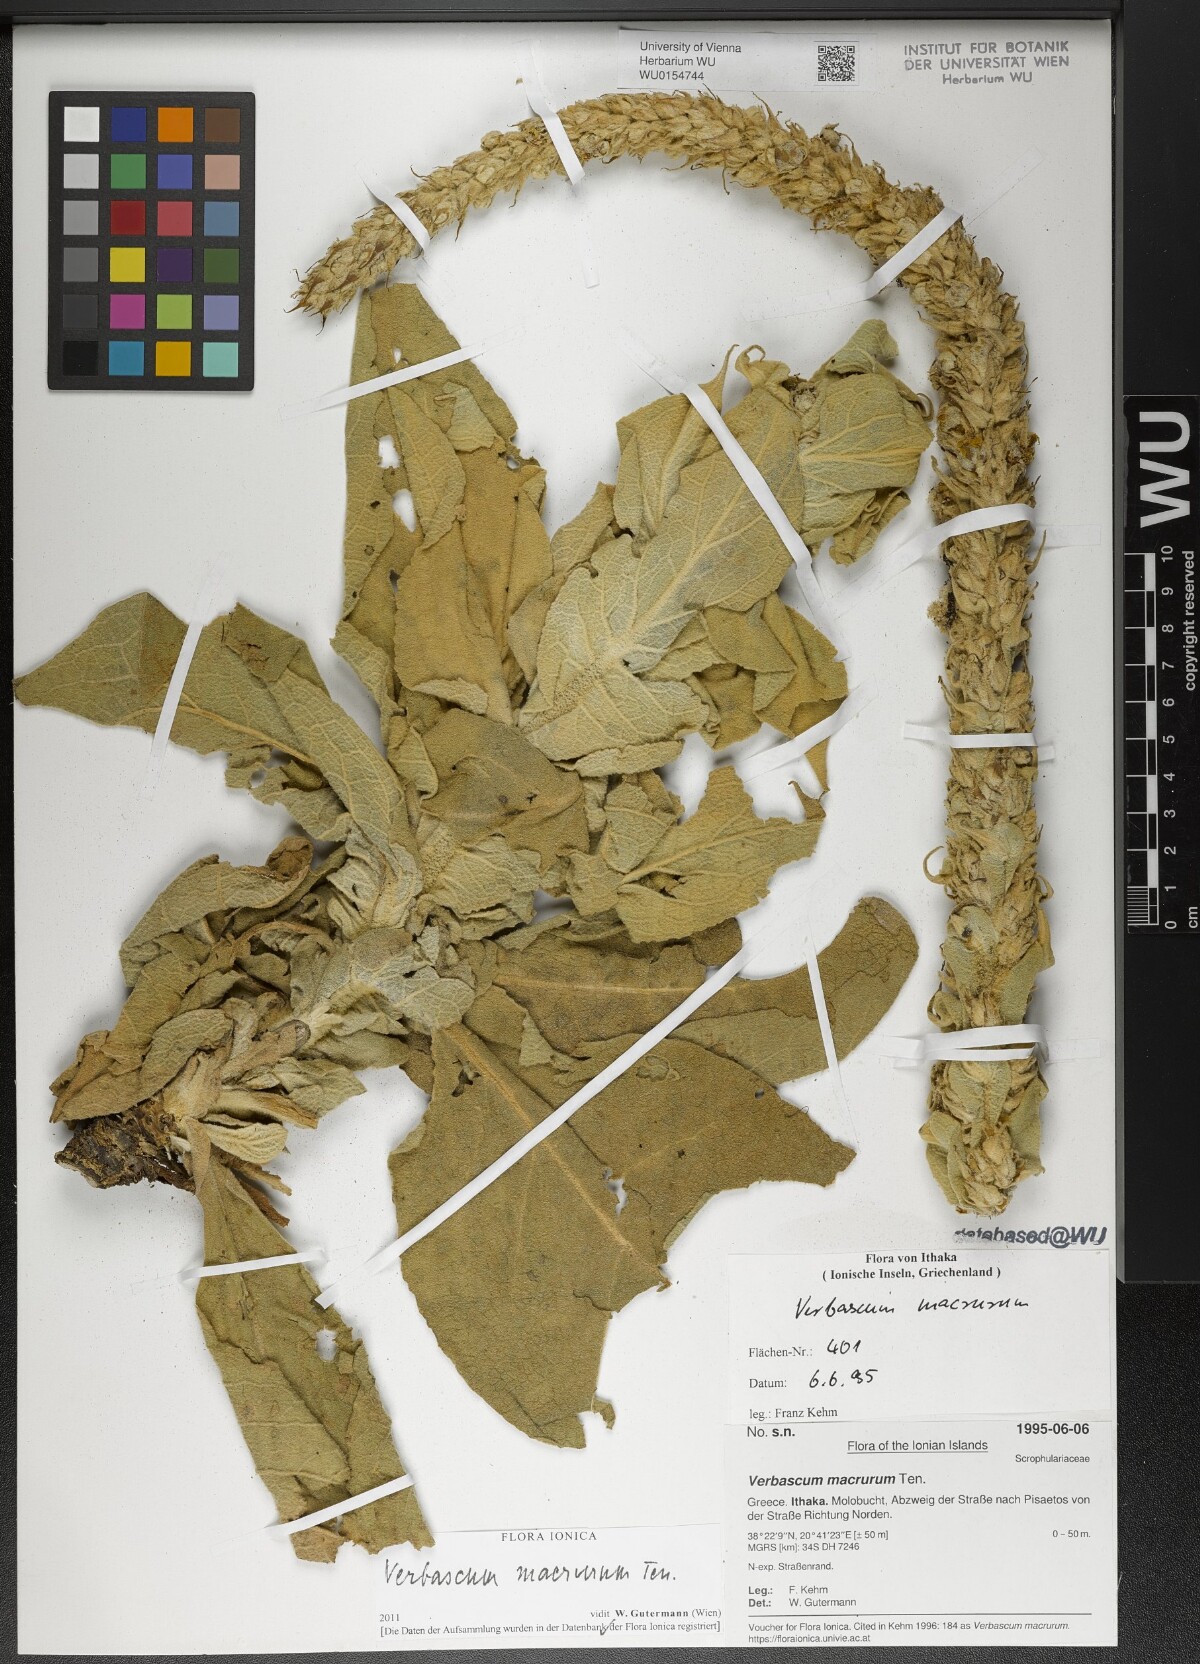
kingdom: Plantae
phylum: Tracheophyta
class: Magnoliopsida
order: Lamiales
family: Scrophulariaceae
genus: Verbascum
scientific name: Verbascum macrurum
